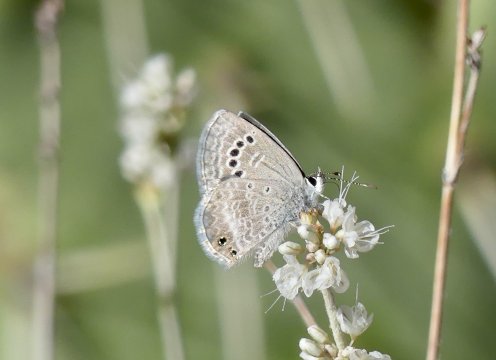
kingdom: Animalia
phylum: Arthropoda
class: Insecta
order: Lepidoptera
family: Lycaenidae
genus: Echinargus
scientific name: Echinargus isola
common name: Reakirt's Blue
